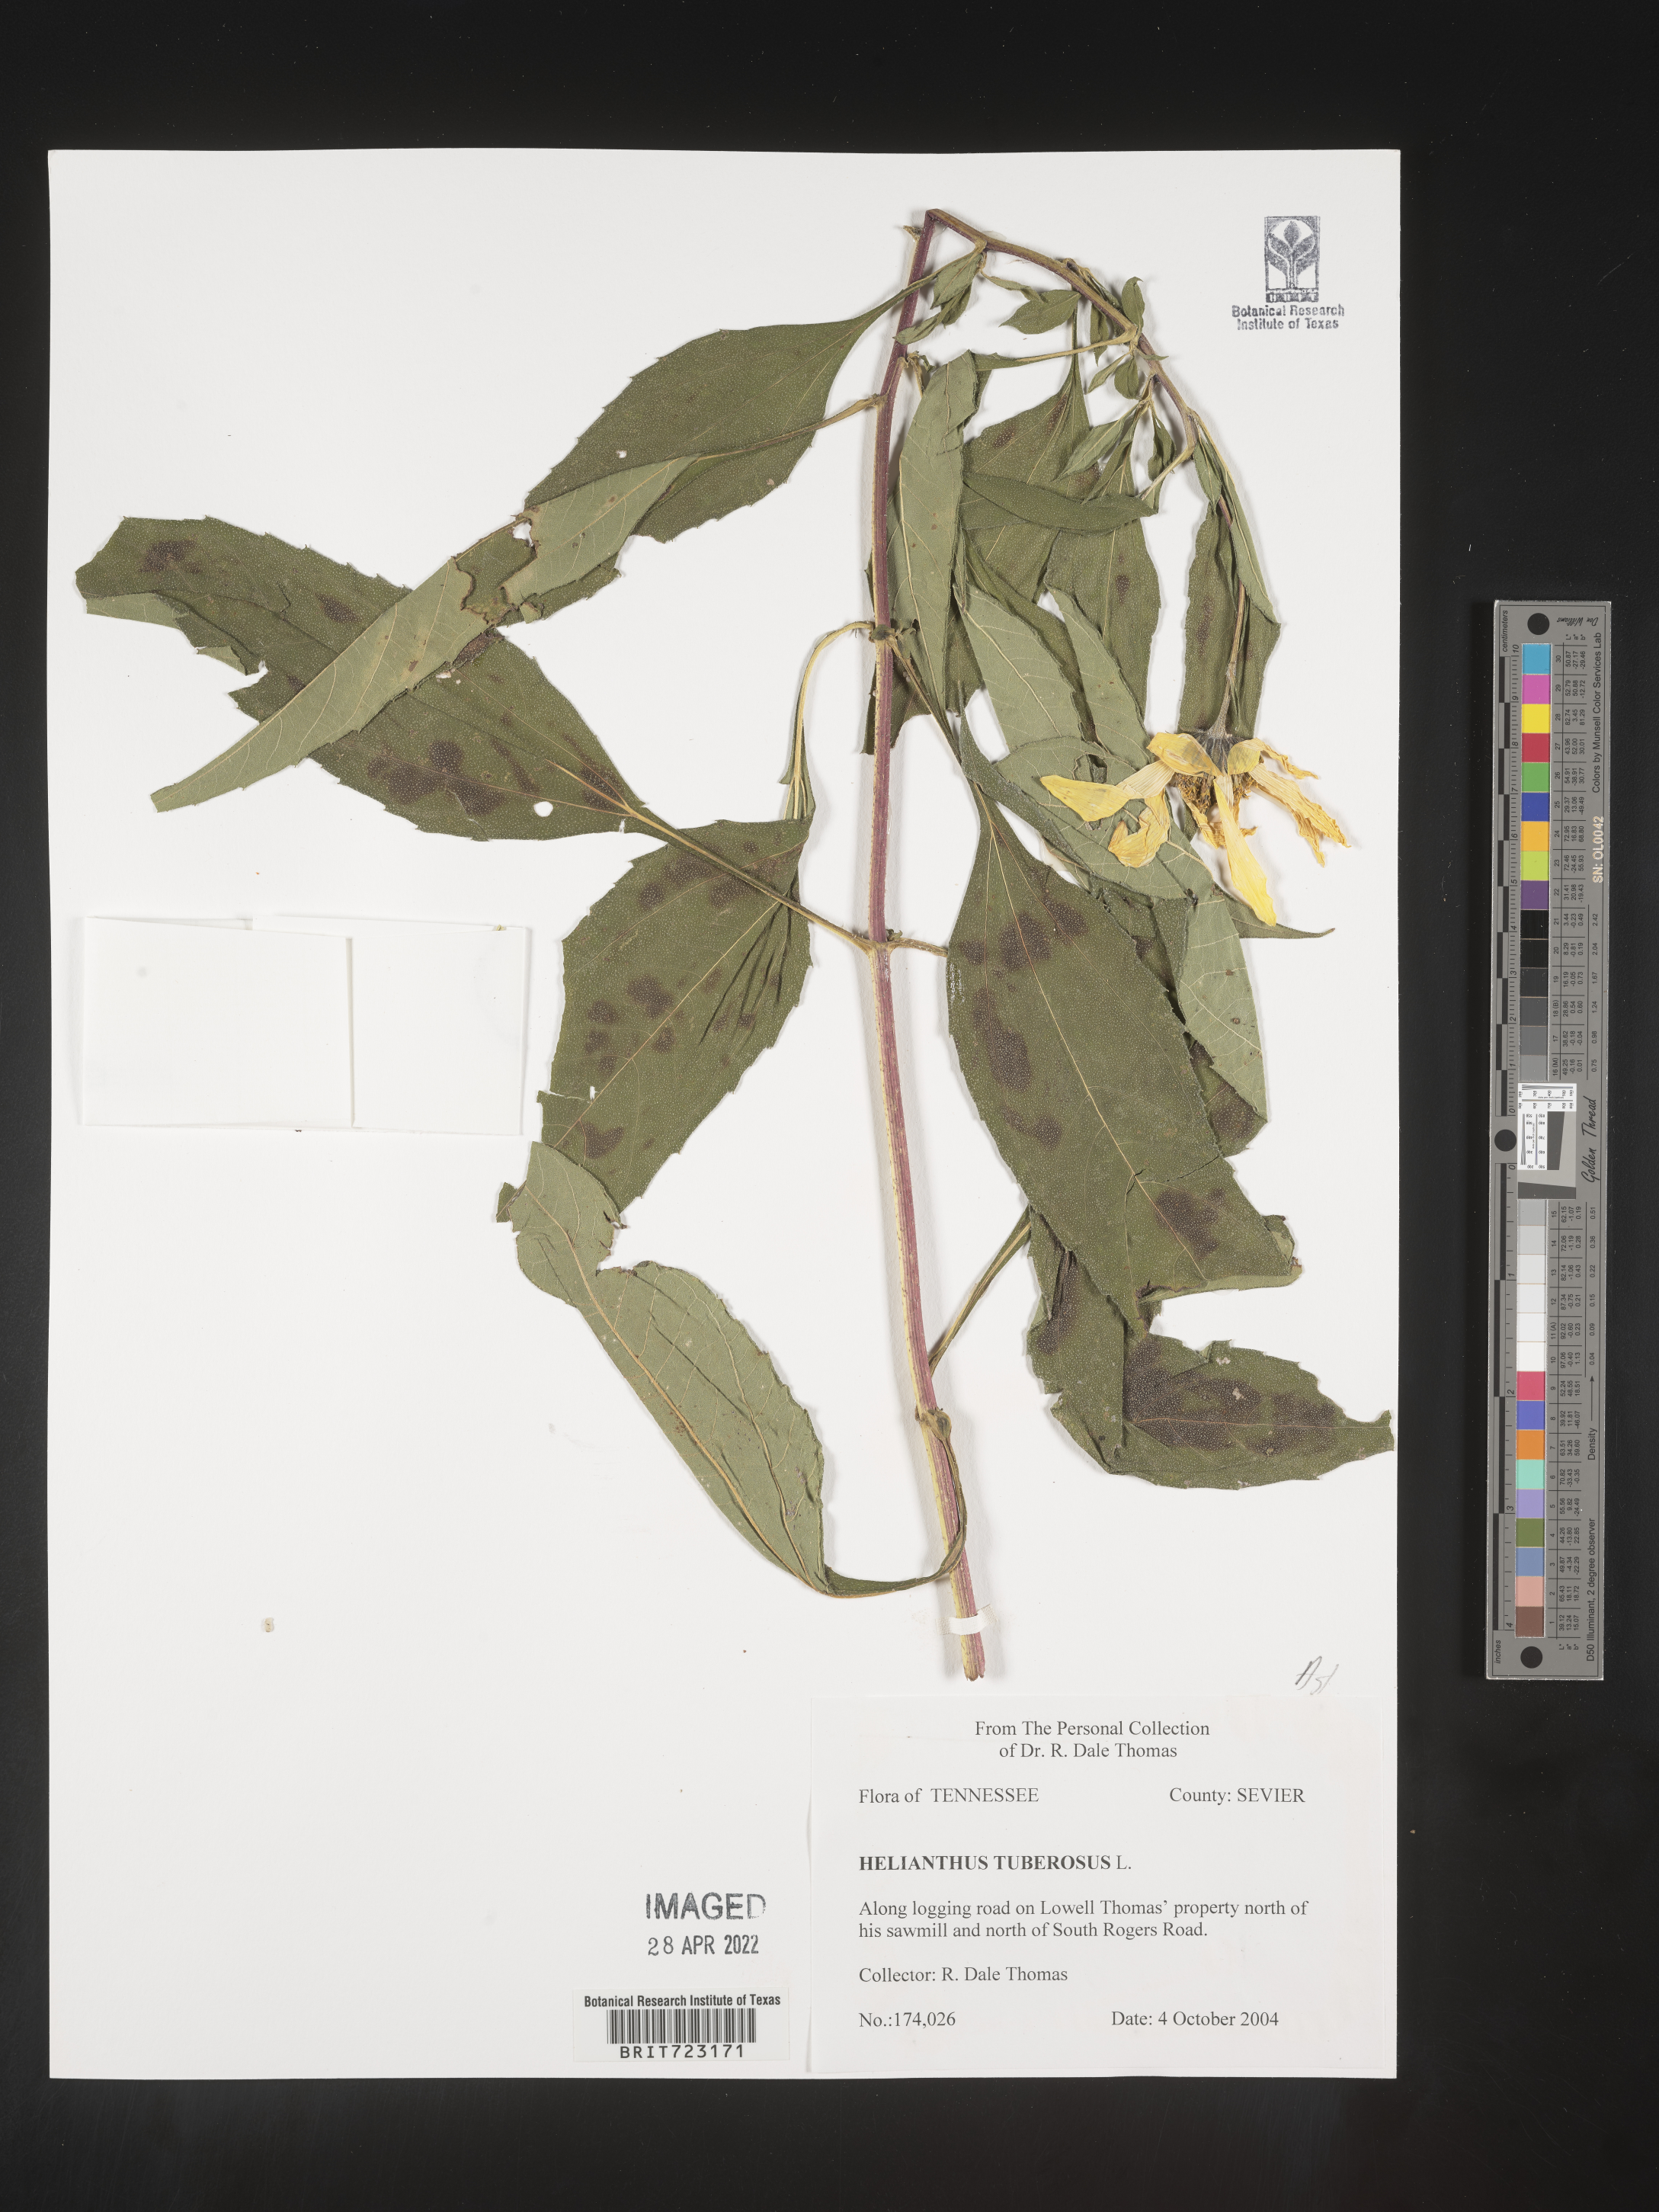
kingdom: Plantae
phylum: Tracheophyta
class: Magnoliopsida
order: Asterales
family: Asteraceae
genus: Helianthus
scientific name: Helianthus tuberosus
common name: Jerusalem artichoke
